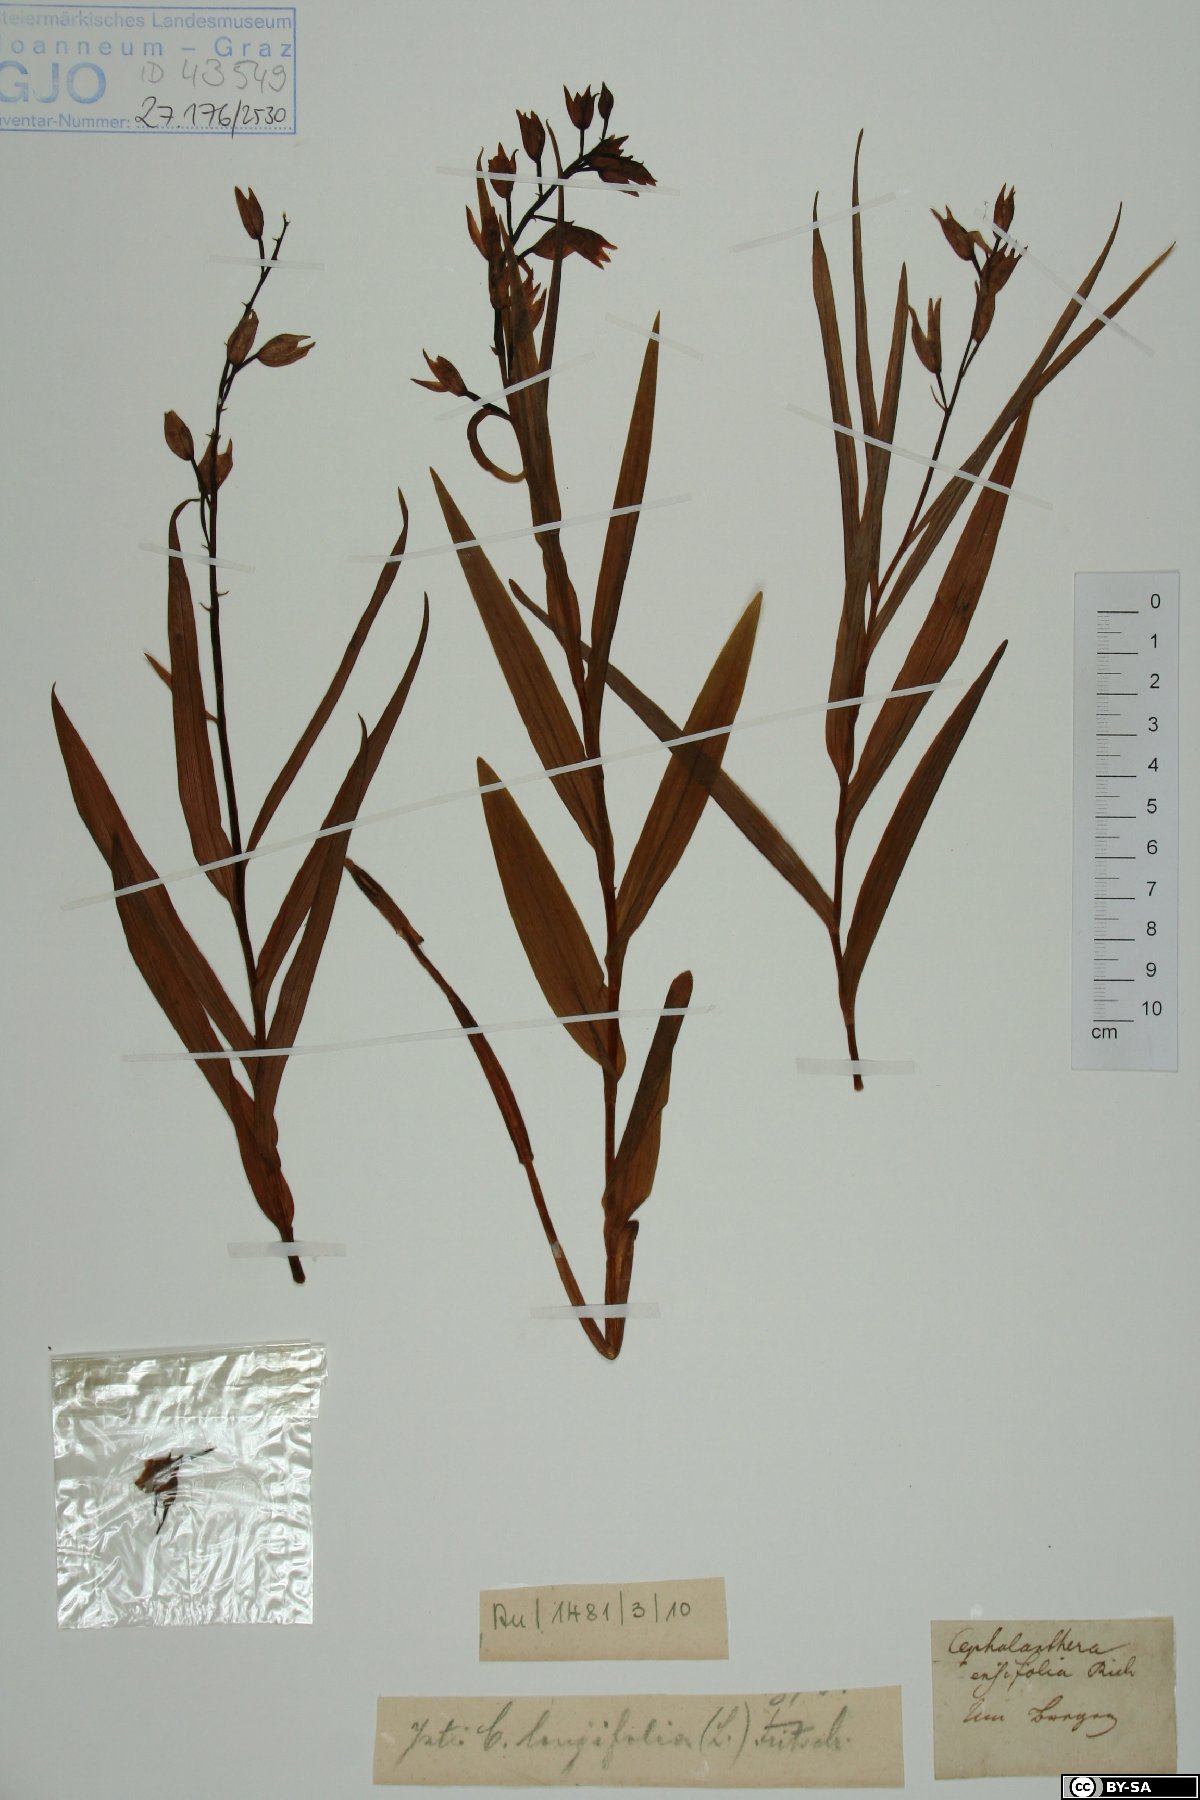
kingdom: Plantae
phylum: Tracheophyta
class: Liliopsida
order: Asparagales
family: Orchidaceae
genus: Cephalanthera
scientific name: Cephalanthera longifolia
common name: Narrow-leaved helleborine
